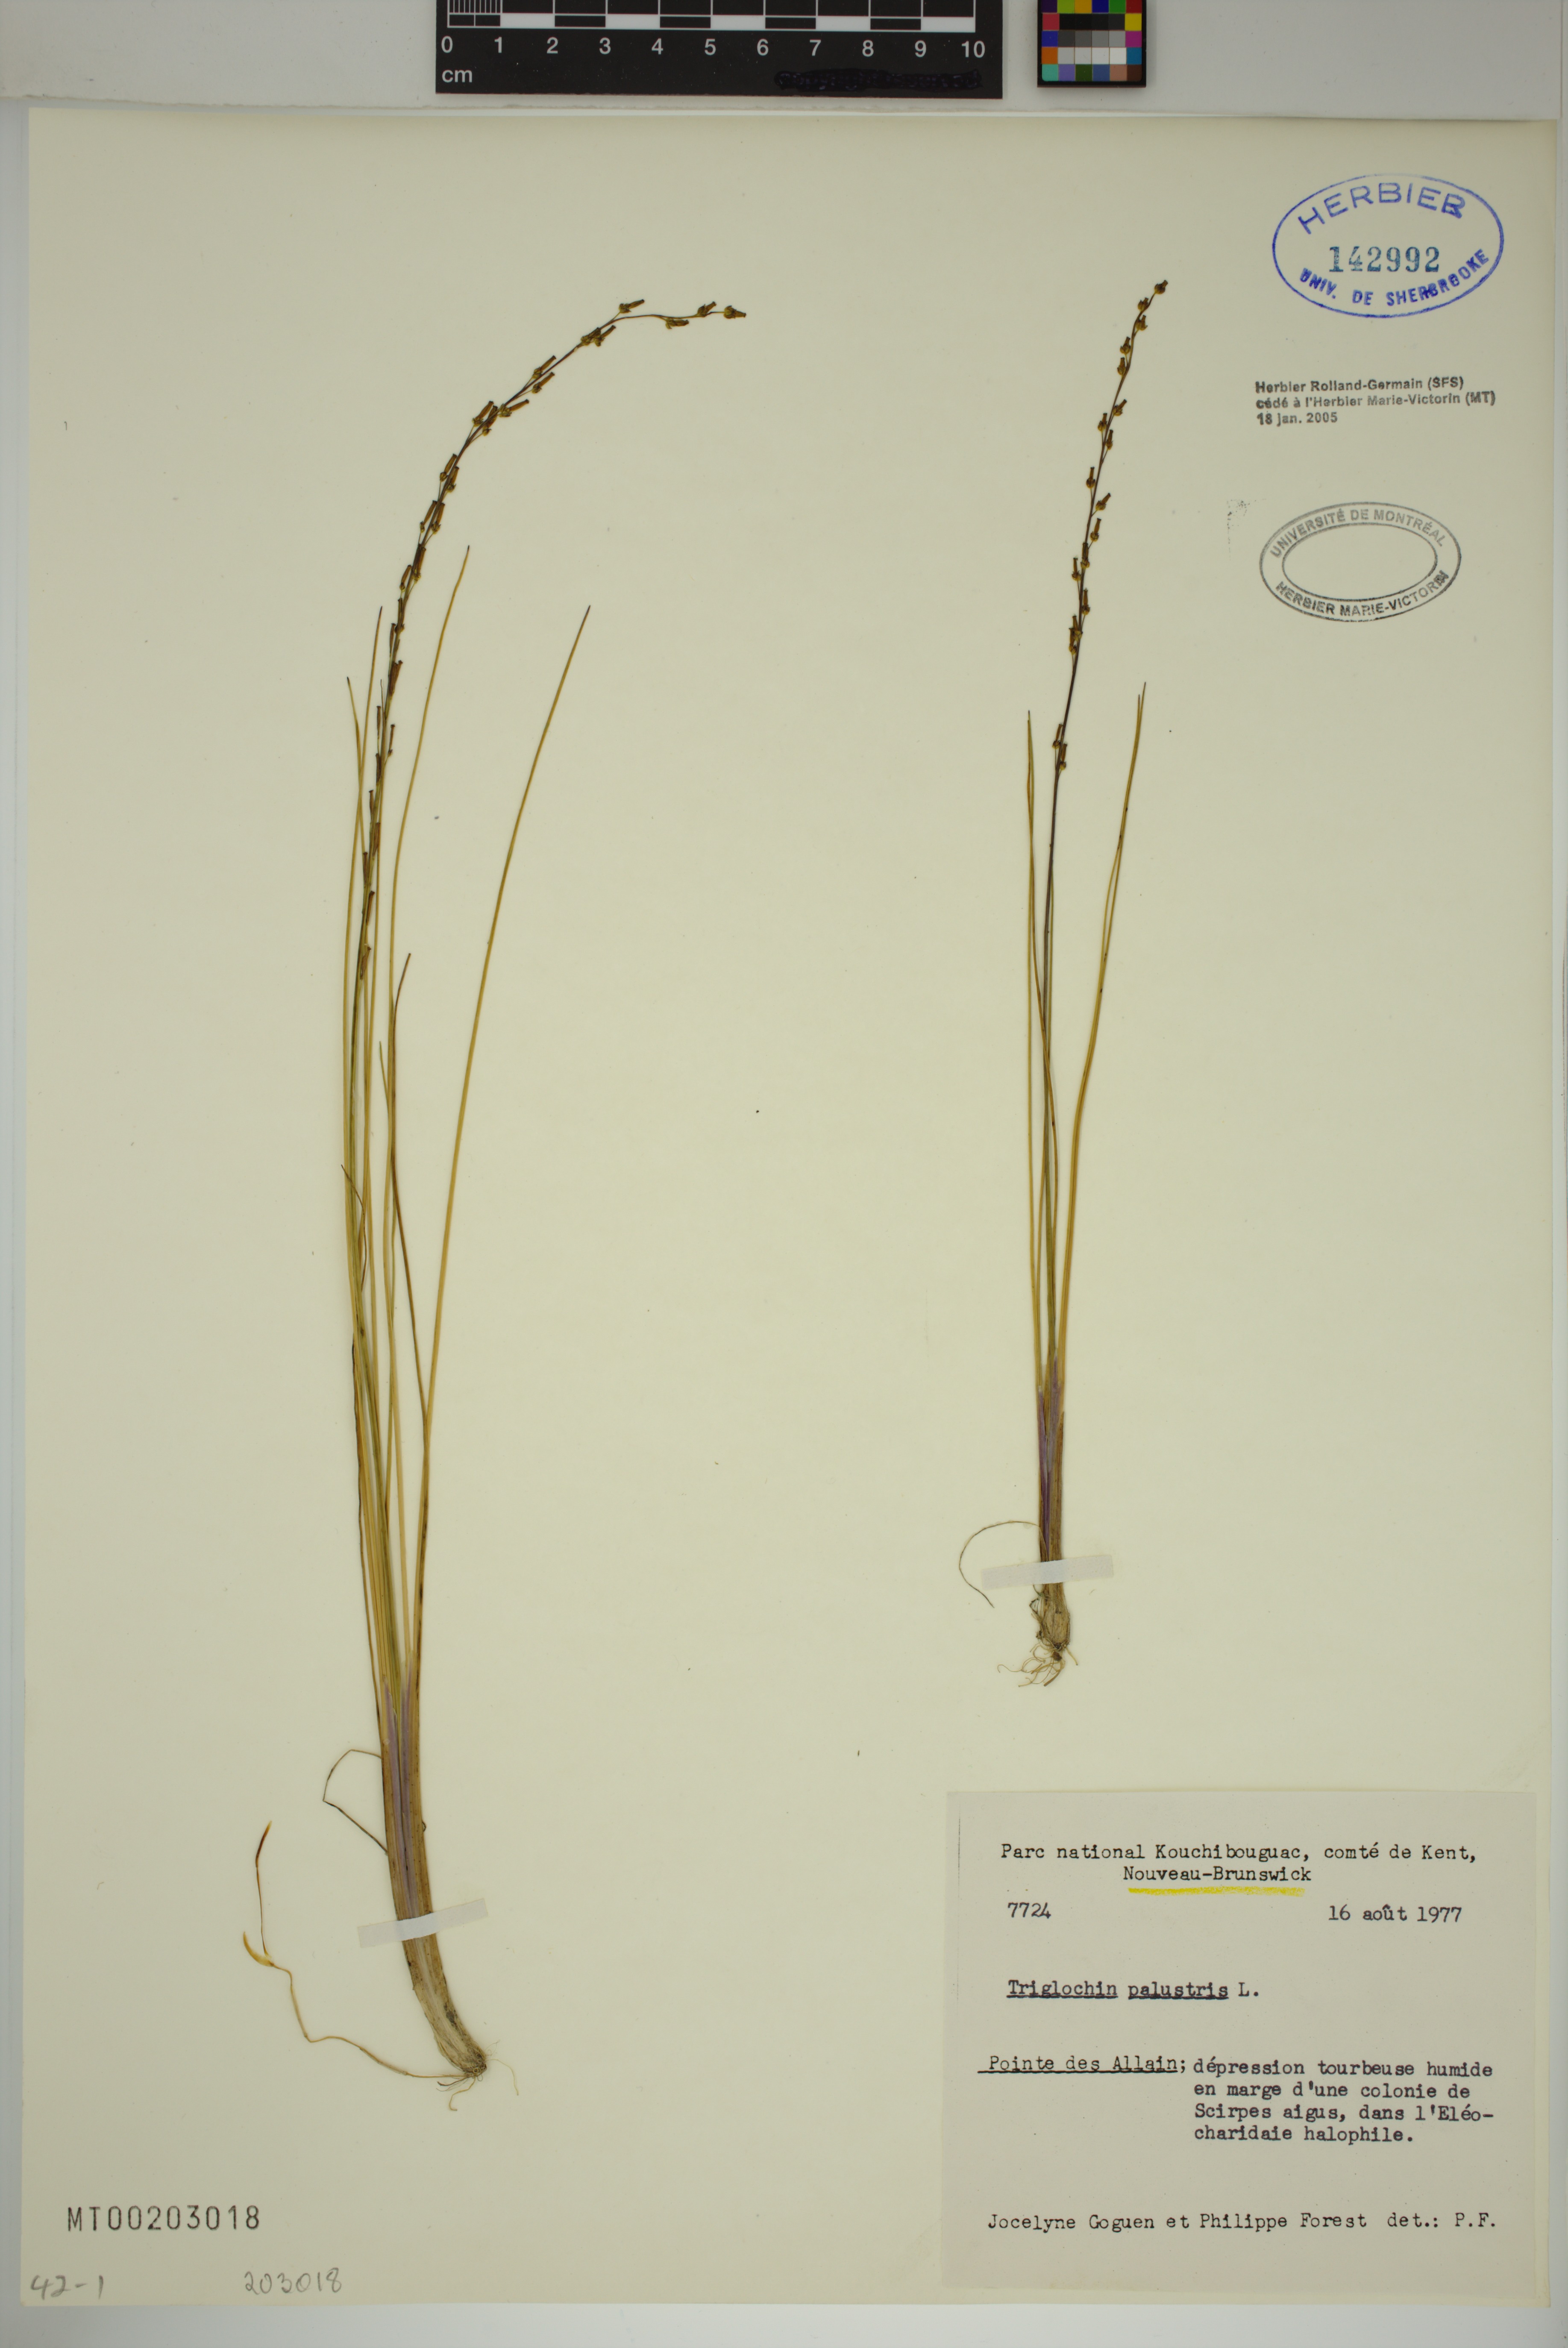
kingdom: Plantae
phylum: Tracheophyta
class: Liliopsida
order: Alismatales
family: Juncaginaceae
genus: Triglochin
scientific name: Triglochin palustris
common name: Marsh arrowgrass
